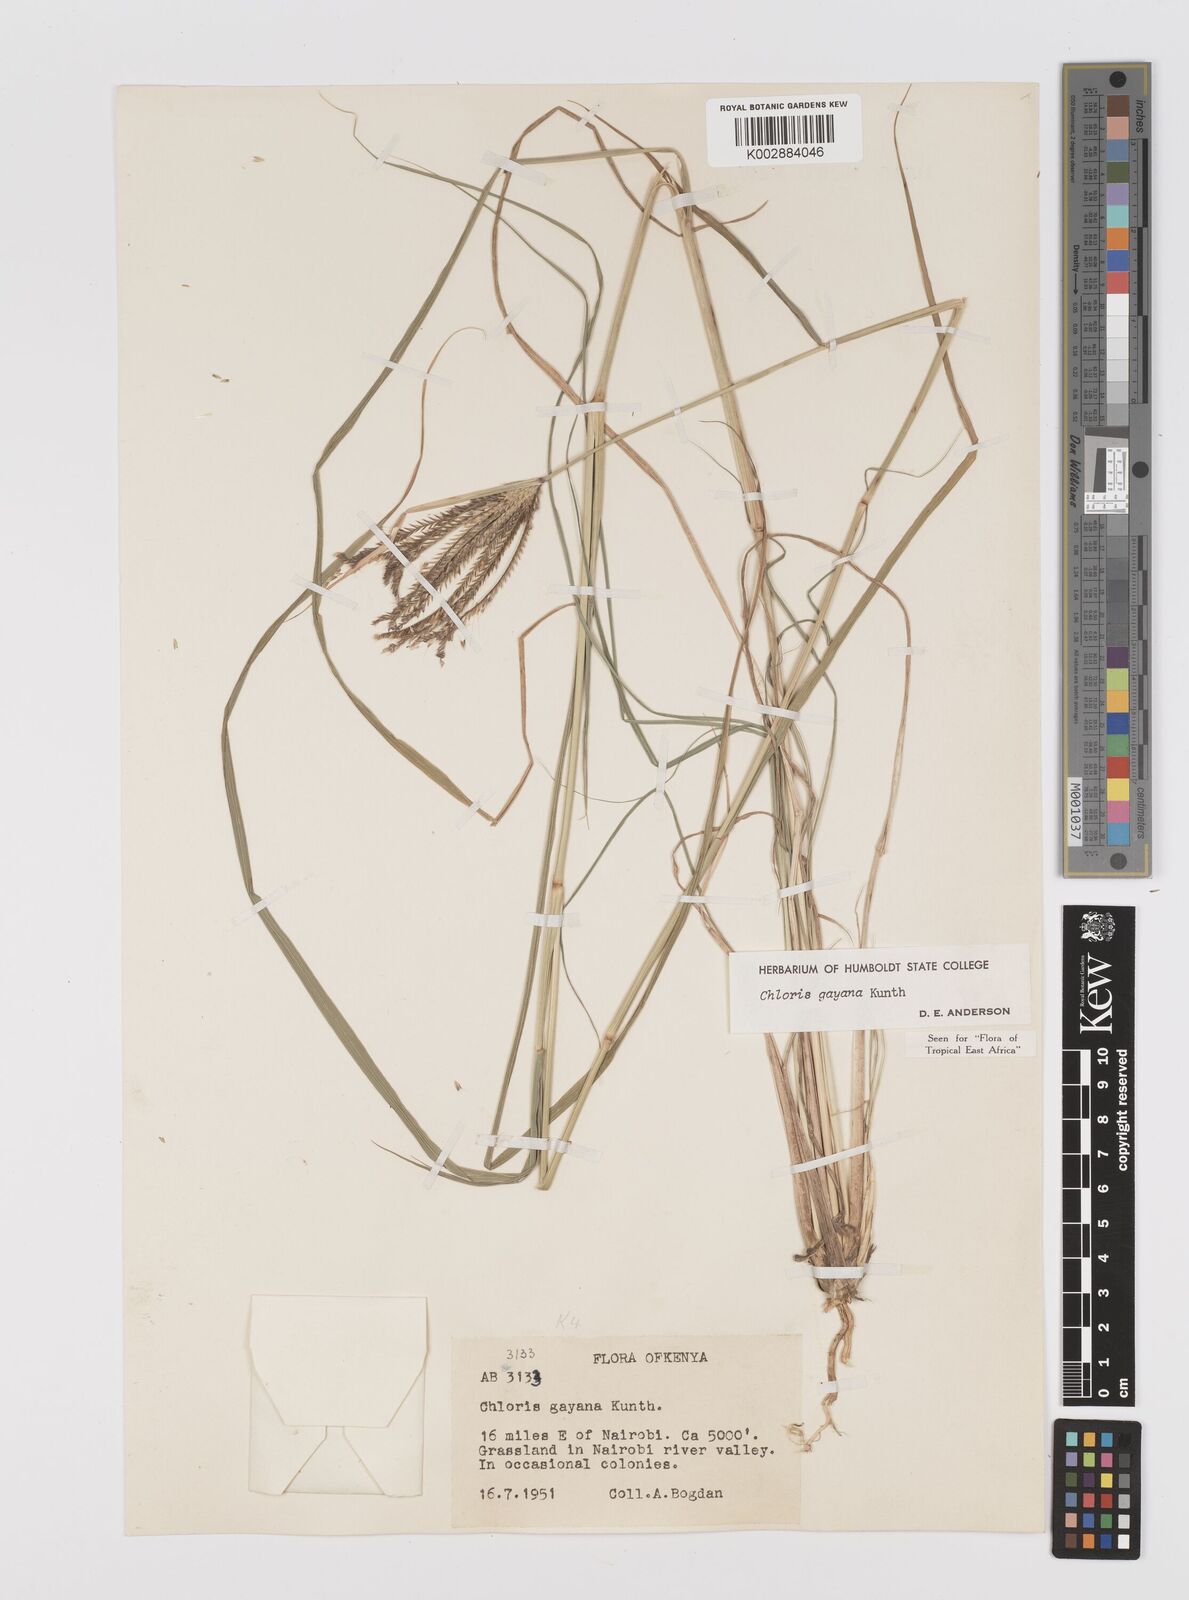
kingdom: Plantae
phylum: Tracheophyta
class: Liliopsida
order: Poales
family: Poaceae
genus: Chloris
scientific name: Chloris gayana
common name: Rhodes grass
